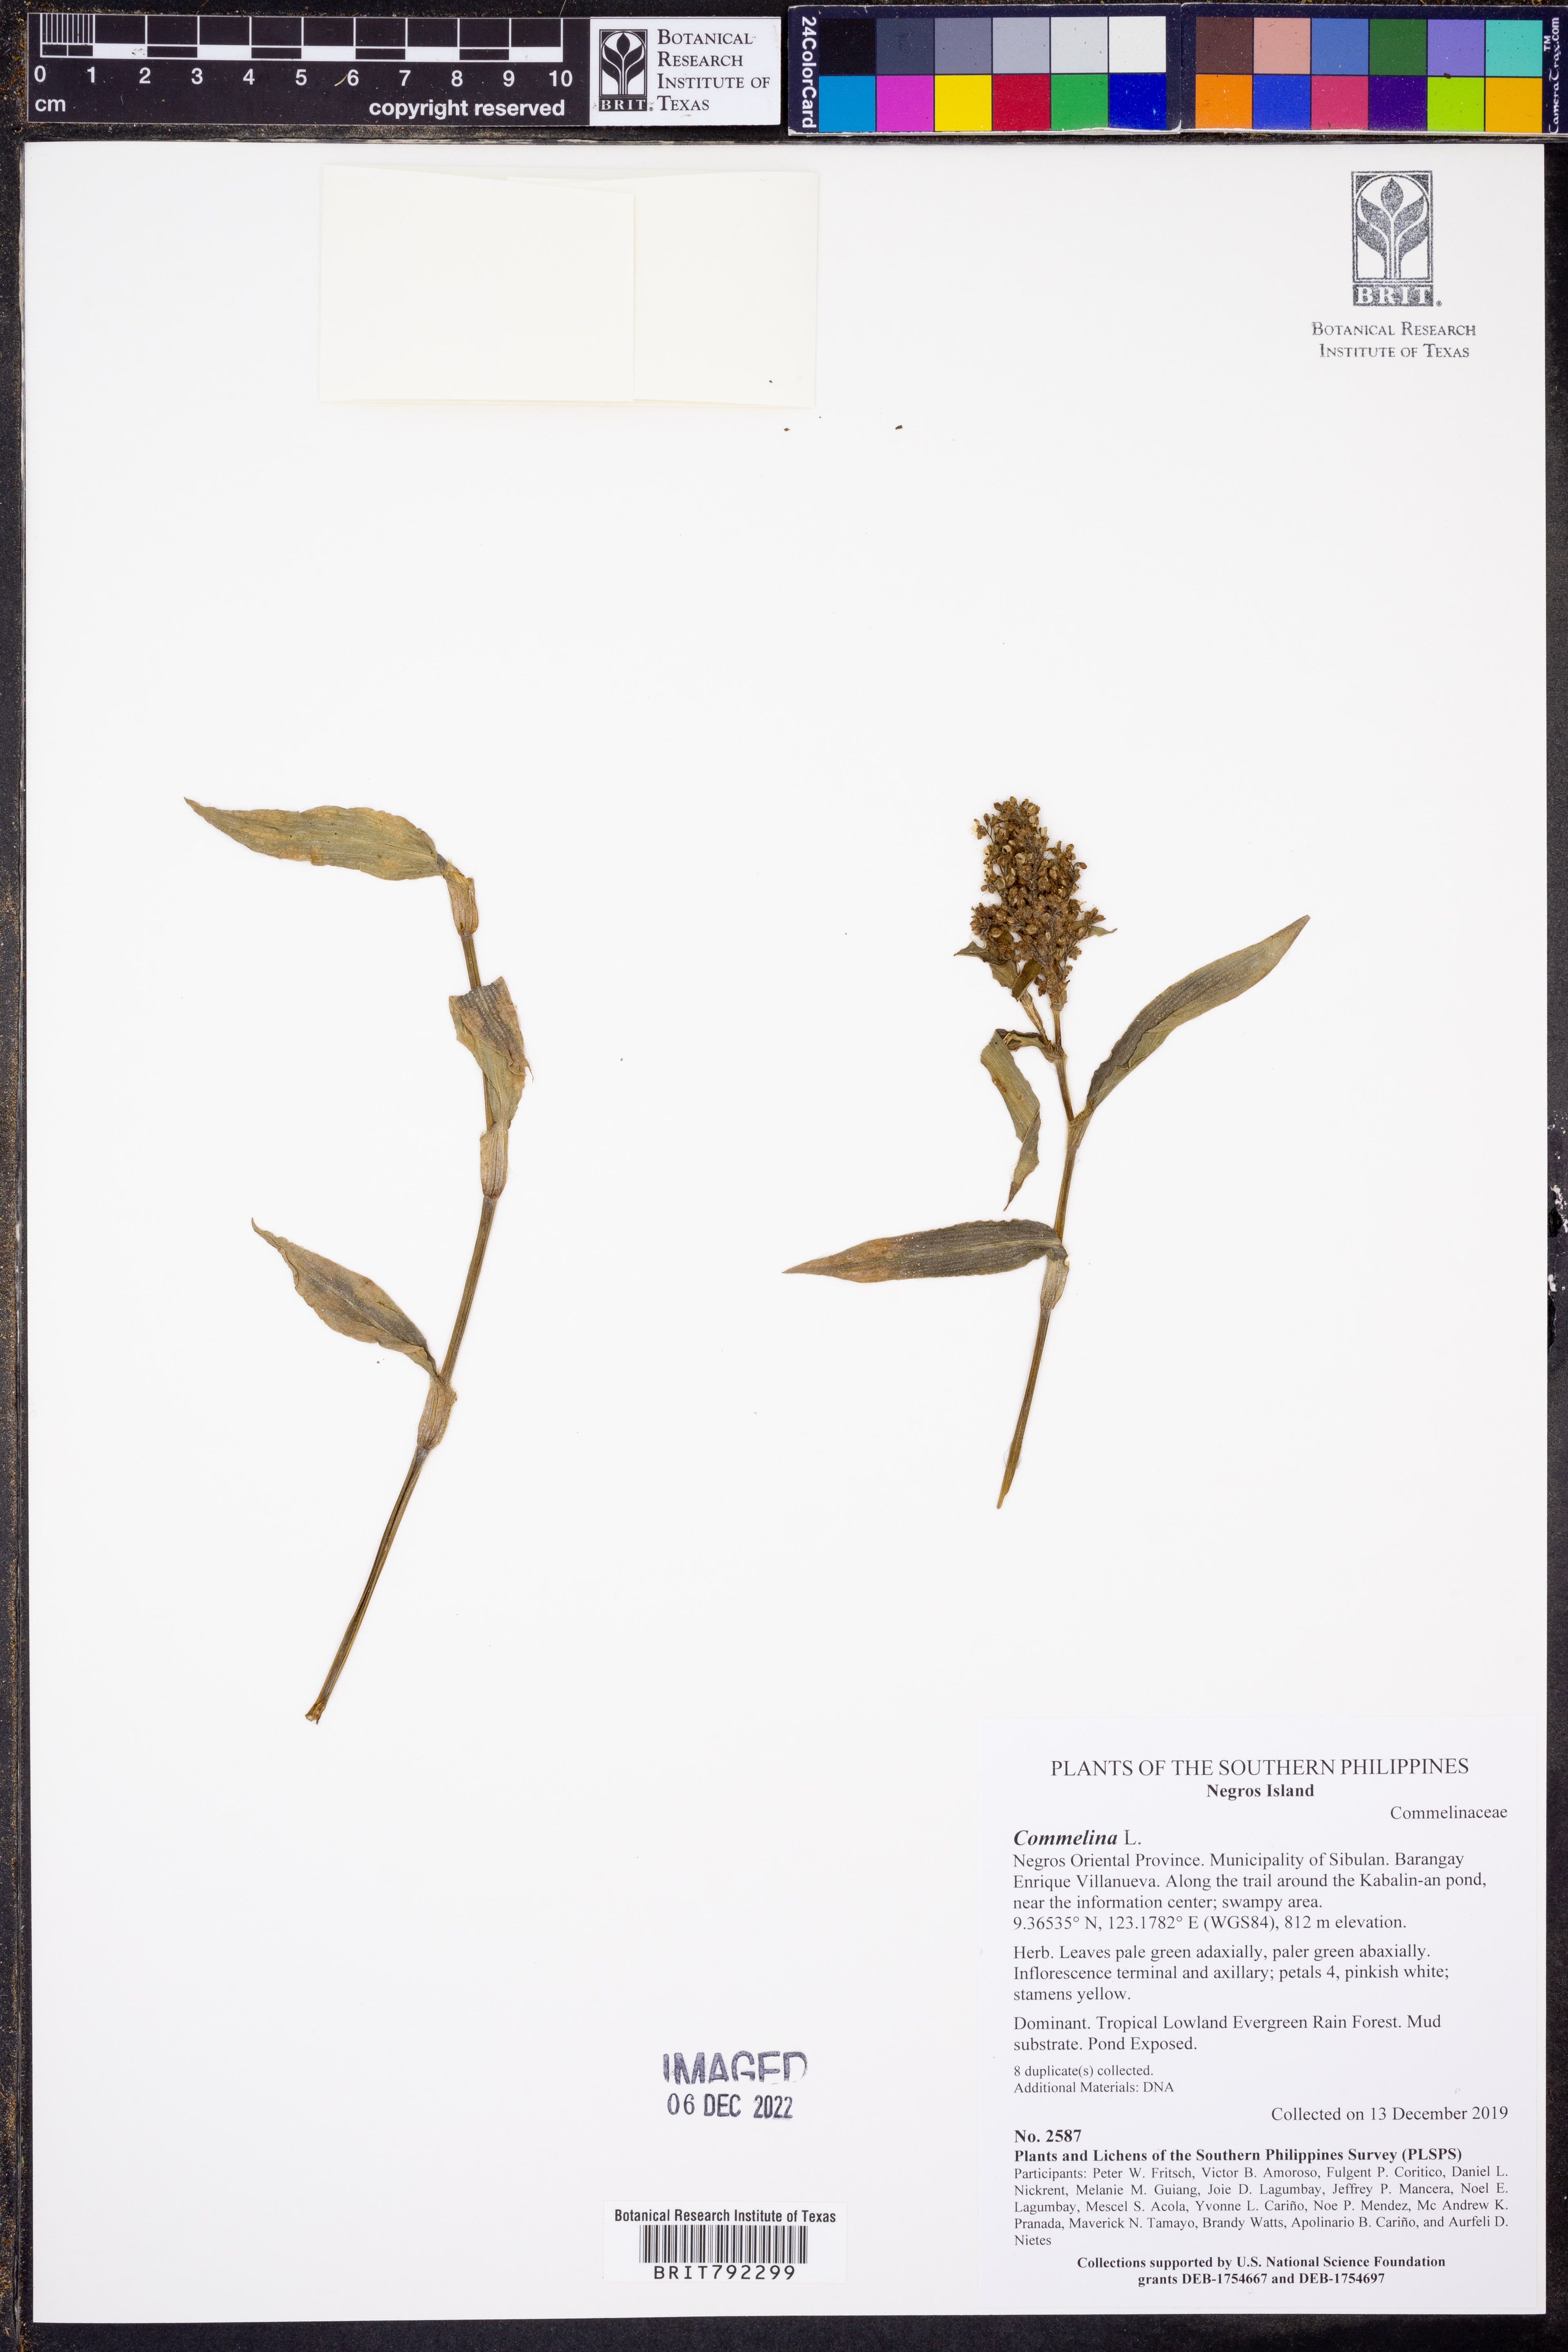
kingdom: Plantae
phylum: Tracheophyta
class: Liliopsida
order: Commelinales
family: Commelinaceae
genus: Floscopa
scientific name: Floscopa scandens
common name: Climbing flower cup
